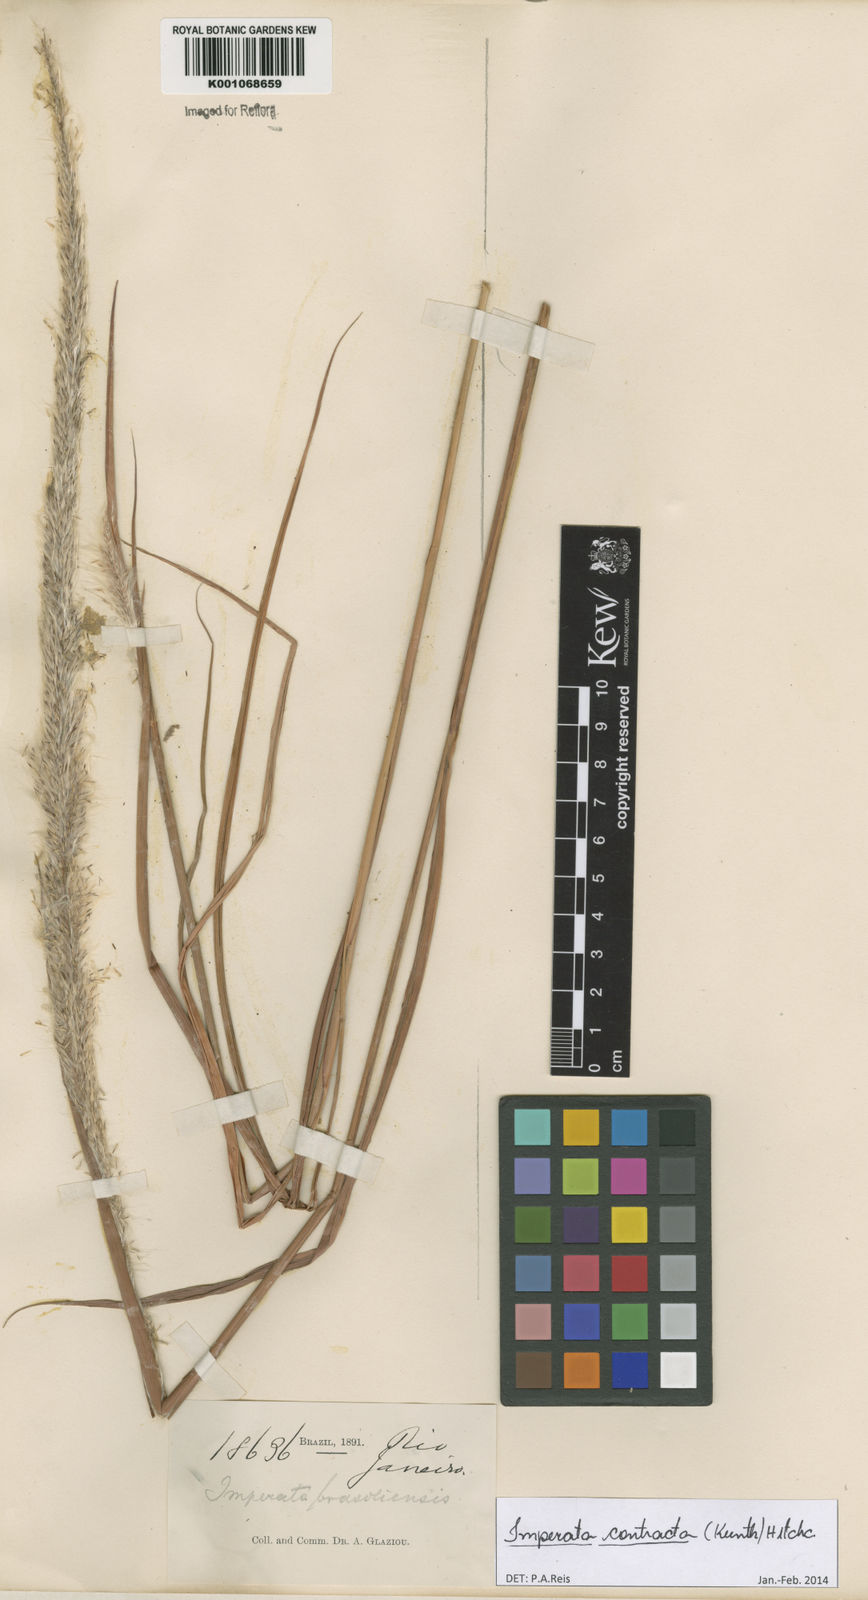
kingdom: Plantae
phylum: Tracheophyta
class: Liliopsida
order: Poales
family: Poaceae
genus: Imperata
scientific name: Imperata contracta
